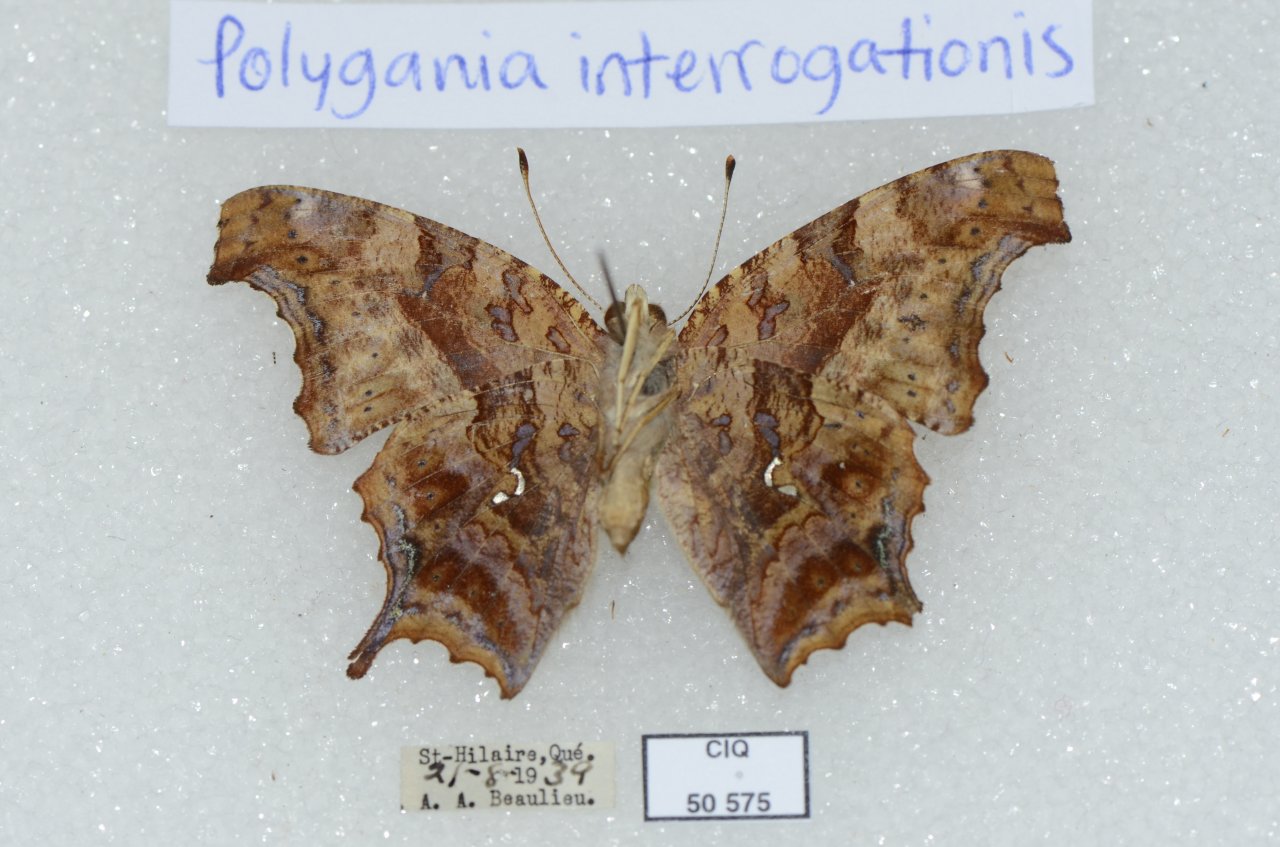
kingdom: Animalia
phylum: Arthropoda
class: Insecta
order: Lepidoptera
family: Nymphalidae
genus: Polygonia
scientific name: Polygonia interrogationis
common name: Question Mark
